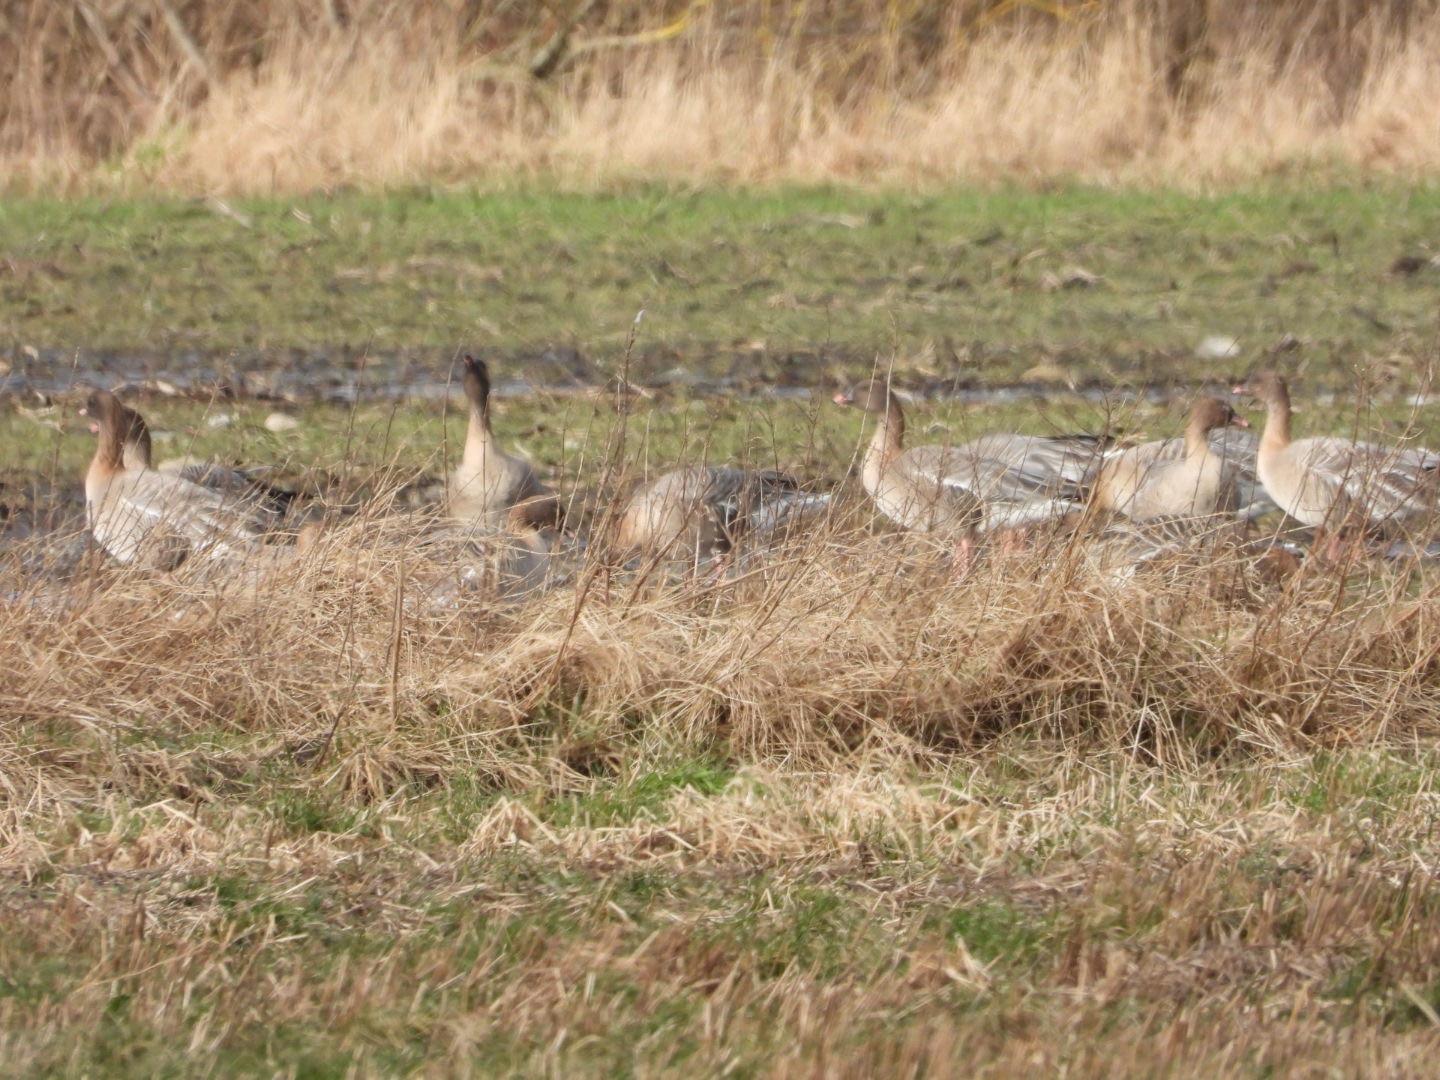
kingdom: Animalia
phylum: Chordata
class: Aves
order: Anseriformes
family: Anatidae
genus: Anser
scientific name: Anser brachyrhynchus
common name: Kortnæbbet gås
